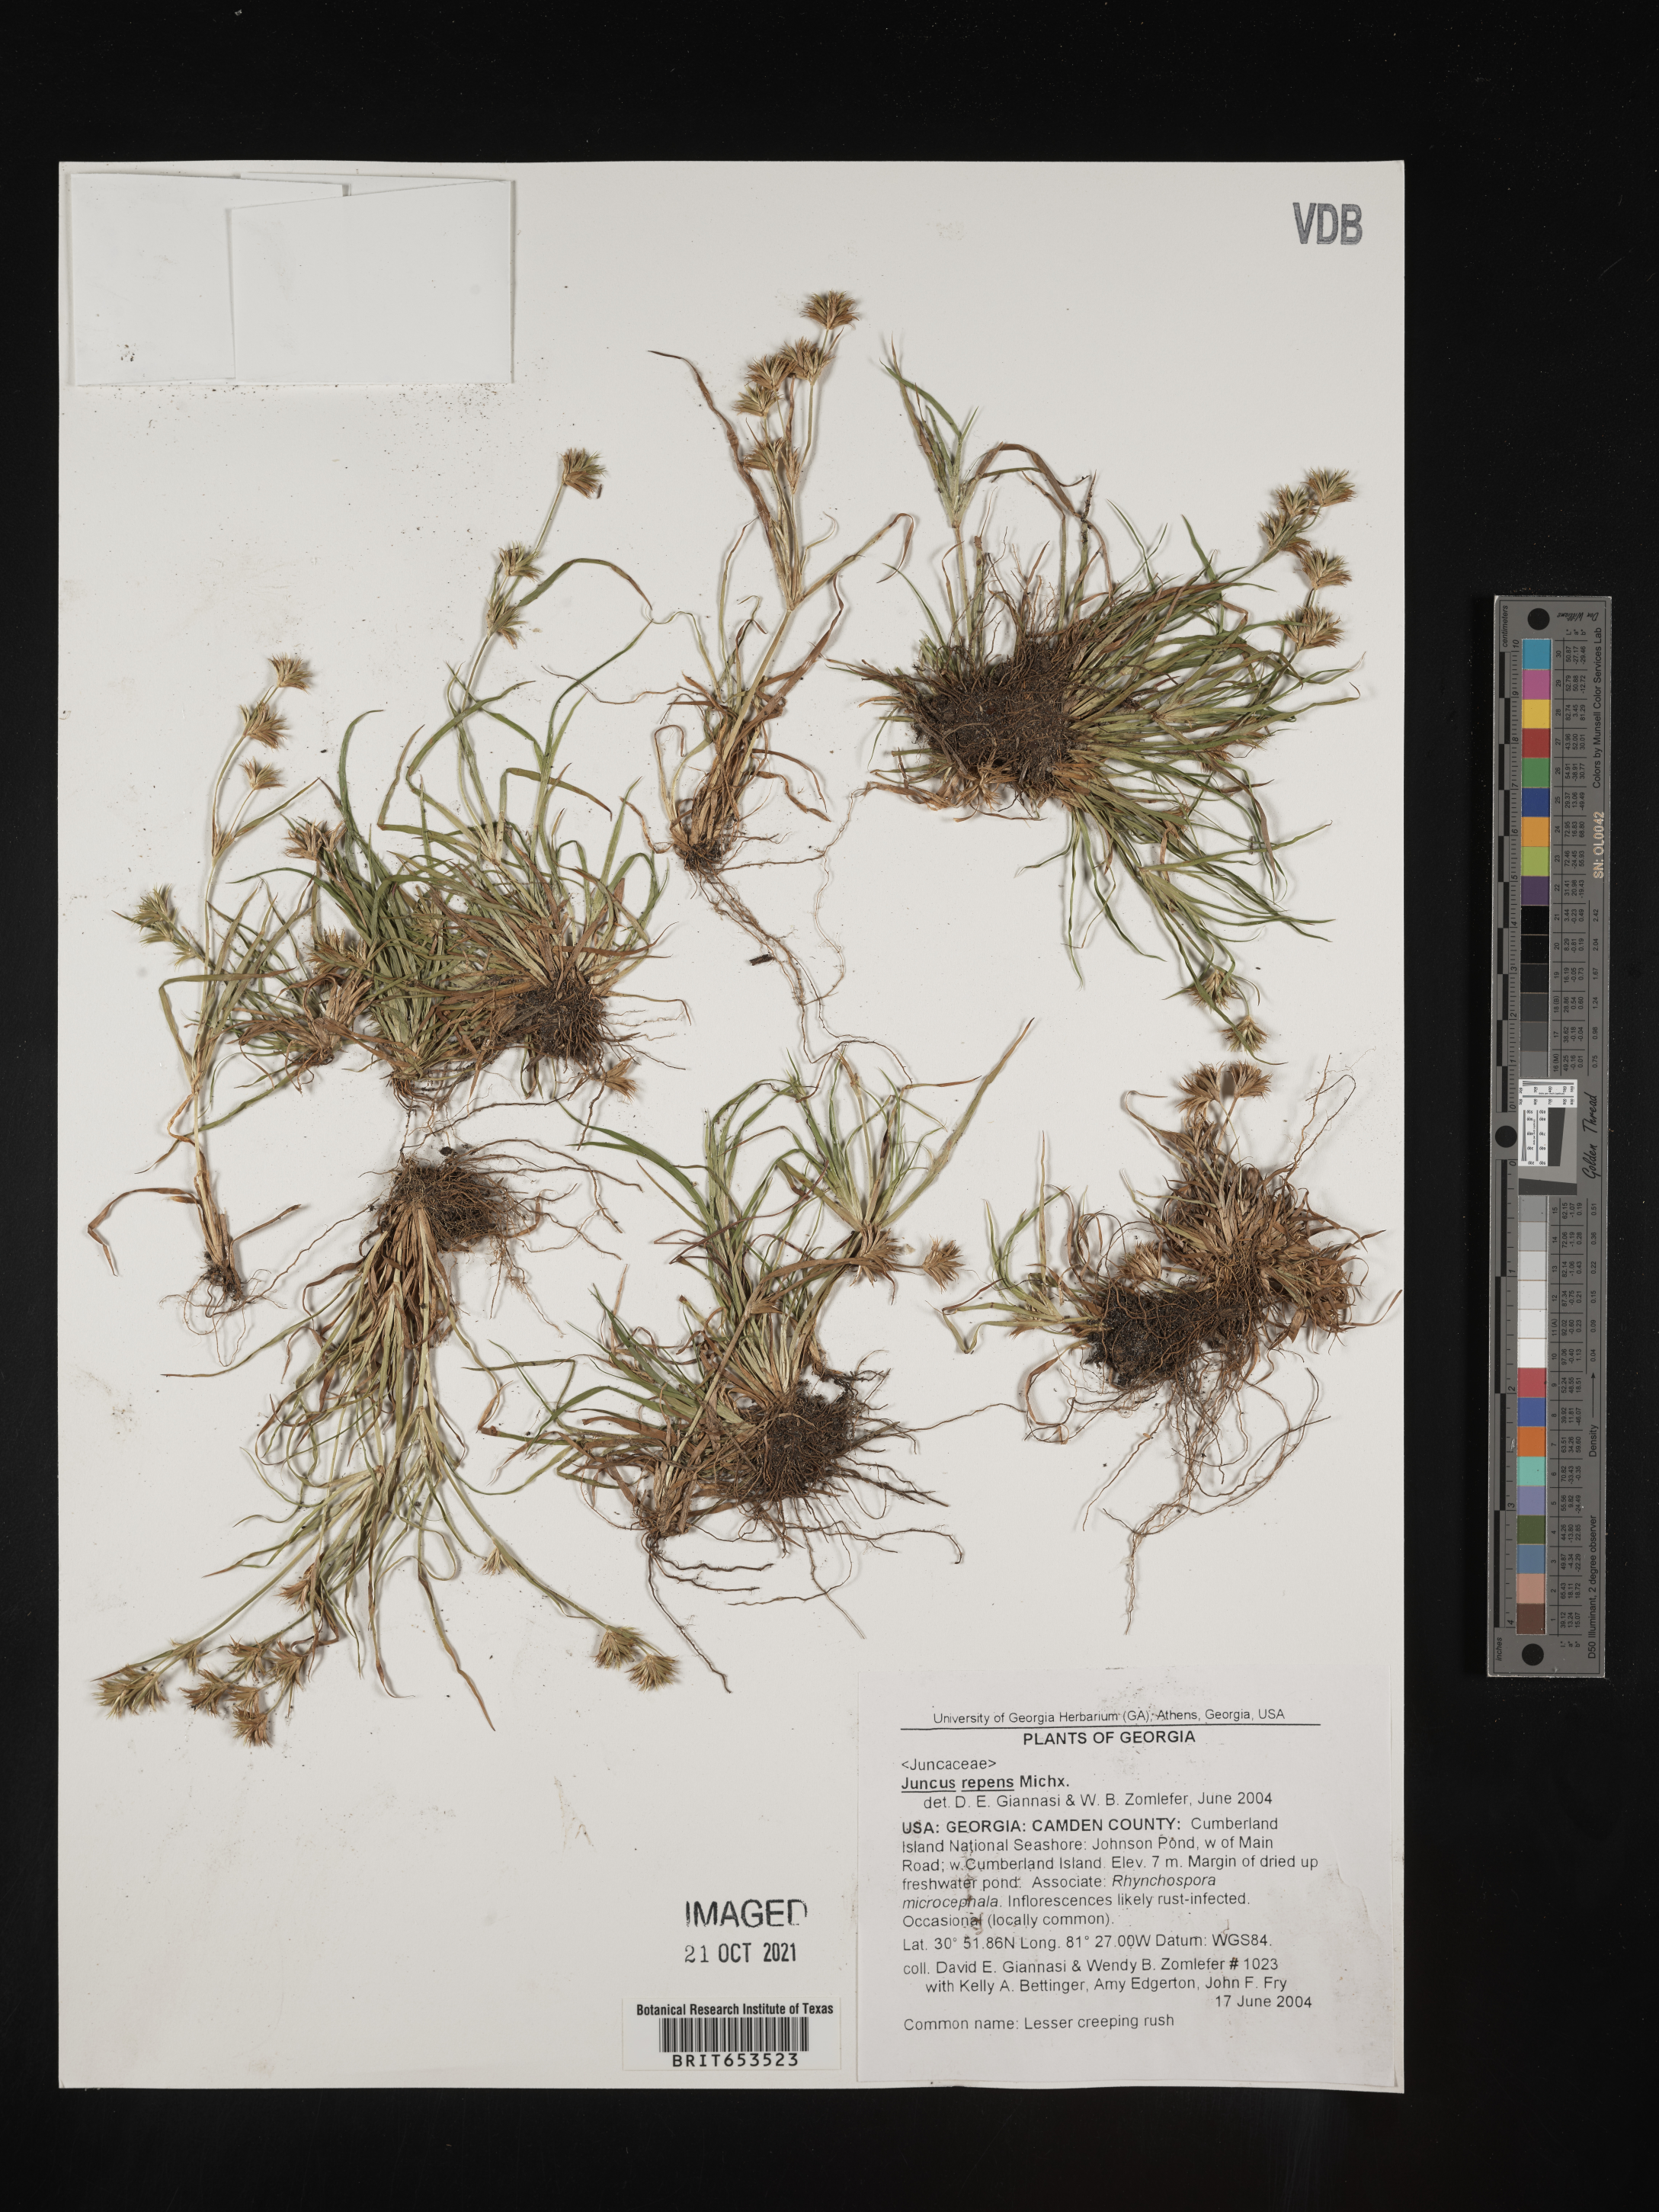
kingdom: Plantae
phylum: Tracheophyta
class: Liliopsida
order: Poales
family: Juncaceae
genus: Juncus
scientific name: Juncus repens
